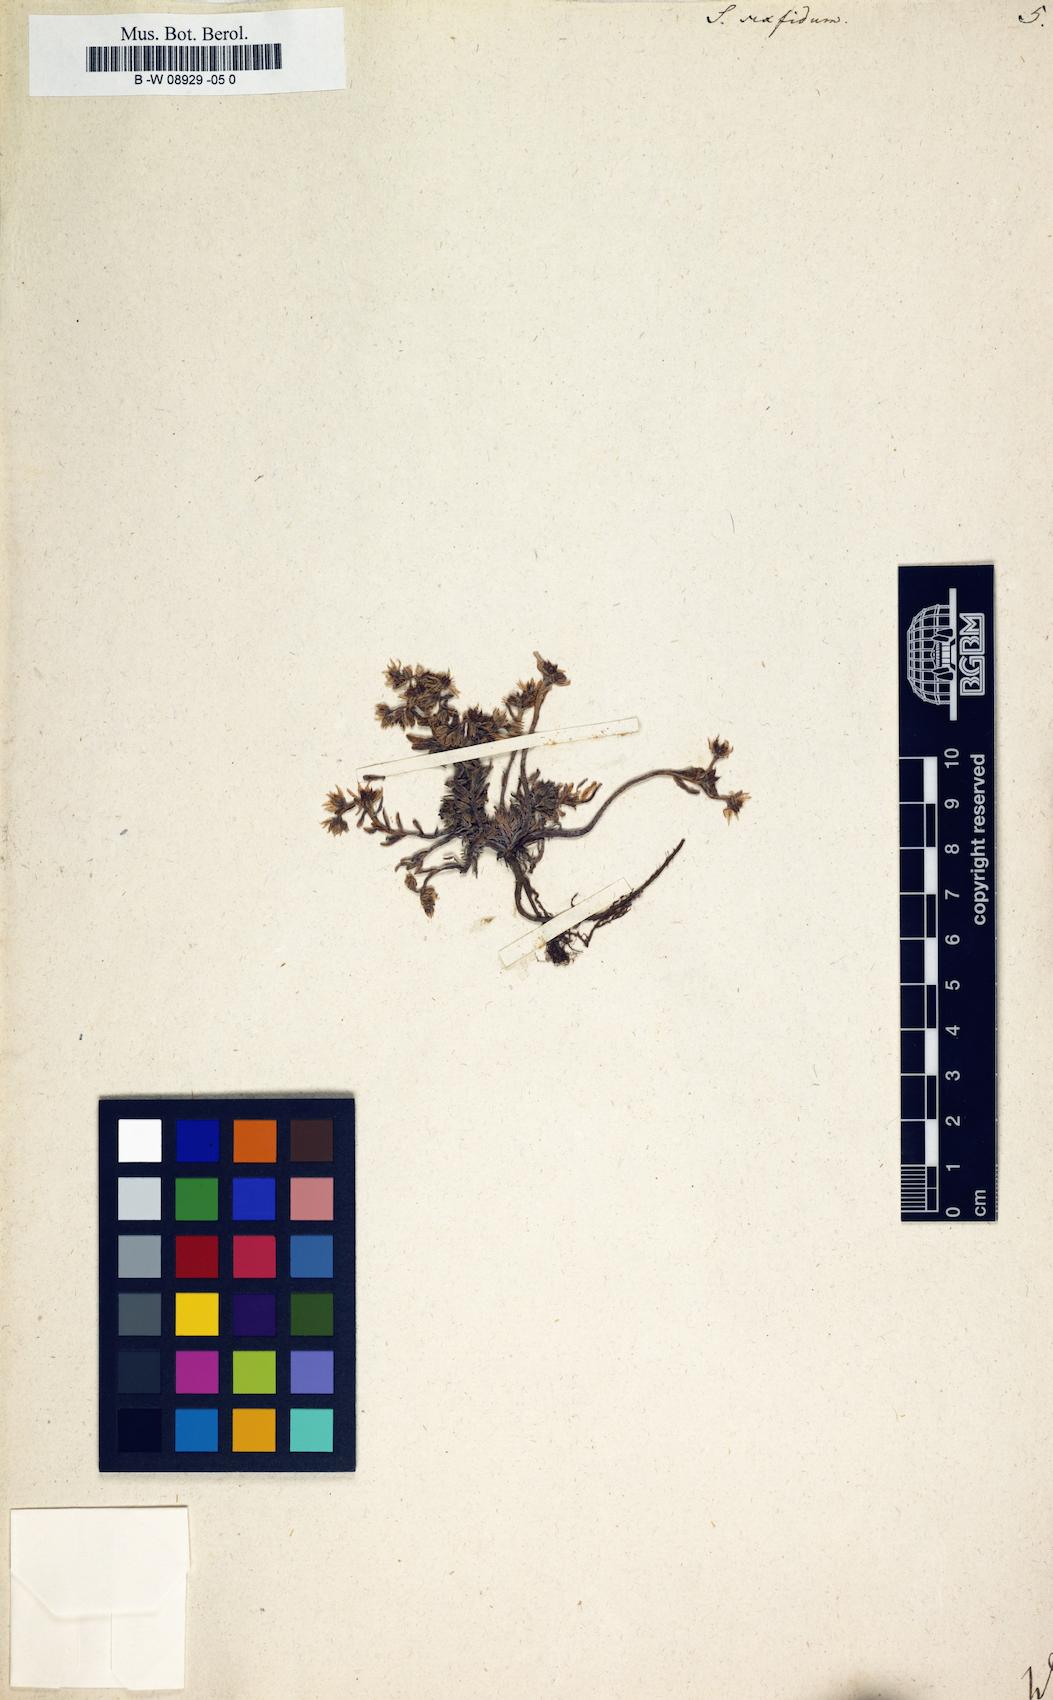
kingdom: Plantae
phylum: Tracheophyta
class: Magnoliopsida
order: Saxifragales
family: Crassulaceae
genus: Sedum
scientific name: Sedum hispanicum
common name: Spanish stonecrop
